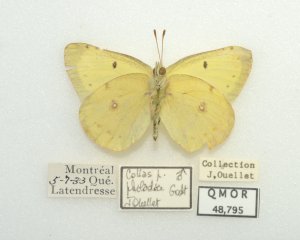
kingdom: Animalia
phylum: Arthropoda
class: Insecta
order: Lepidoptera
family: Pieridae
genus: Colias
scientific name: Colias philodice
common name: Clouded Sulphur
